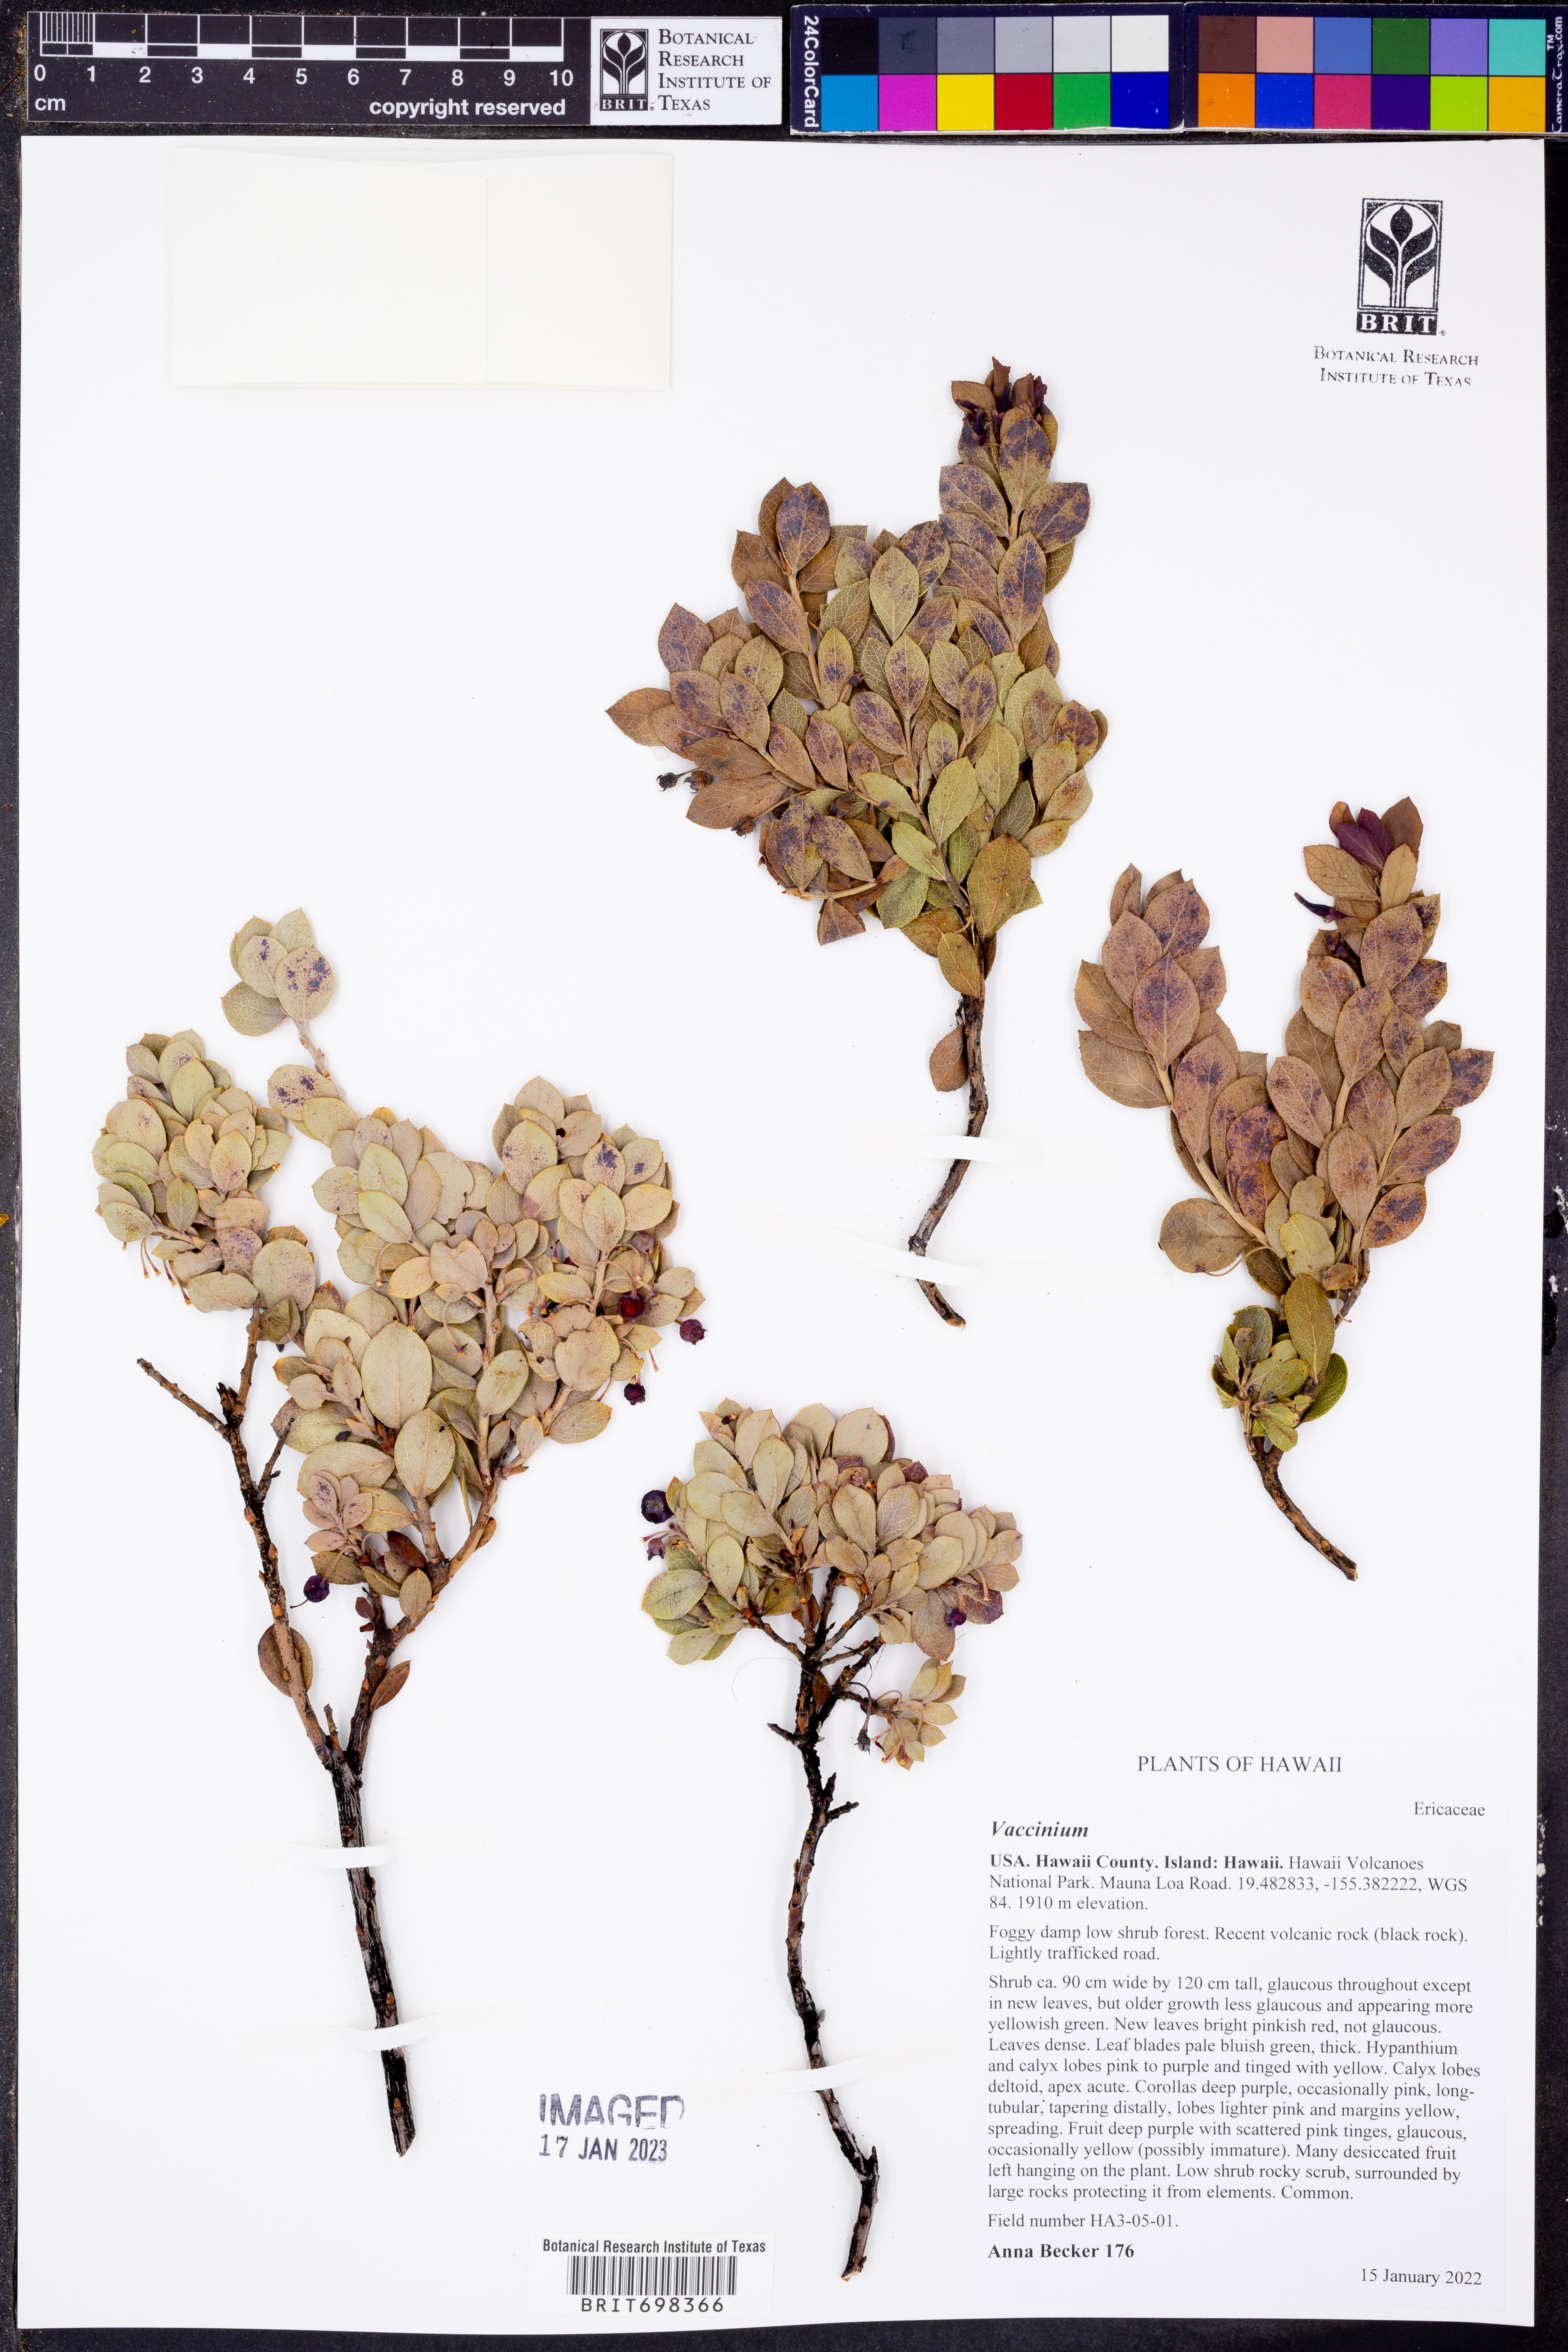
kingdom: Plantae
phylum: Tracheophyta
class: Magnoliopsida
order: Ericales
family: Ericaceae
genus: Vaccinium
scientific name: Vaccinium
